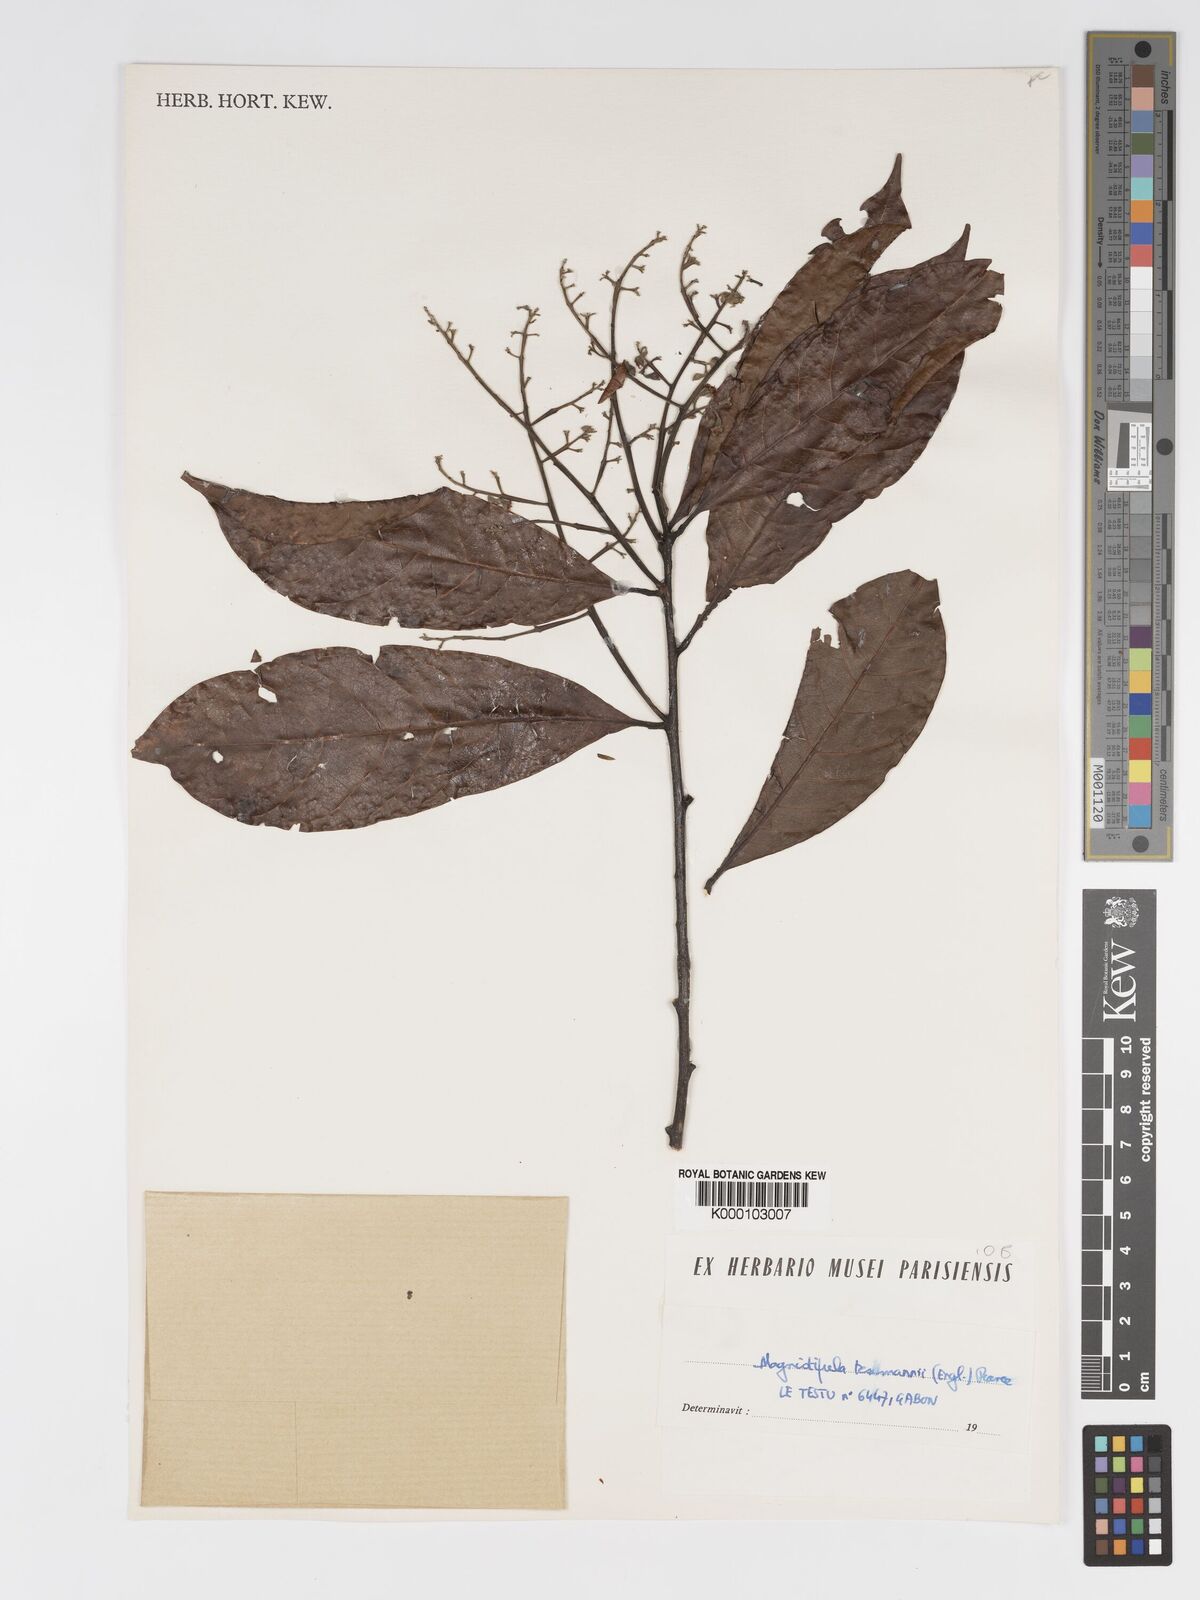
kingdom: Plantae
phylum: Tracheophyta
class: Magnoliopsida
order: Malpighiales
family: Chrysobalanaceae
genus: Magnistipula
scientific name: Magnistipula tessmannii
